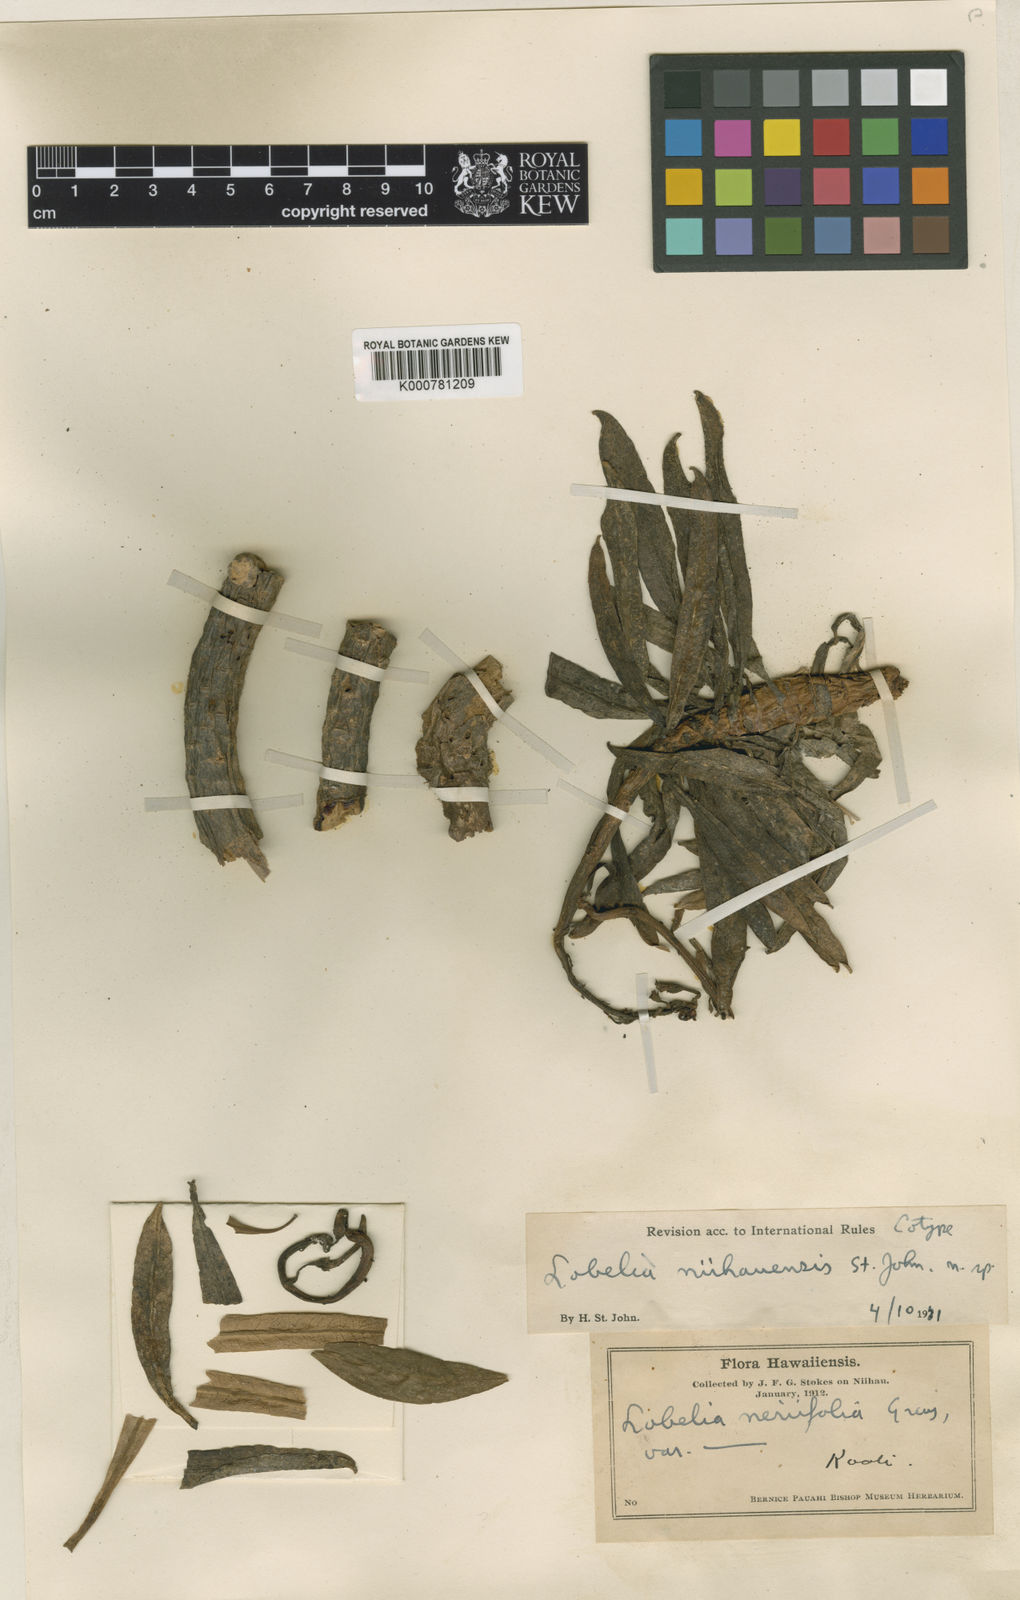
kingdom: Plantae
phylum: Tracheophyta
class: Magnoliopsida
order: Asterales
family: Campanulaceae
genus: Lobelia
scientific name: Lobelia niihauensis
